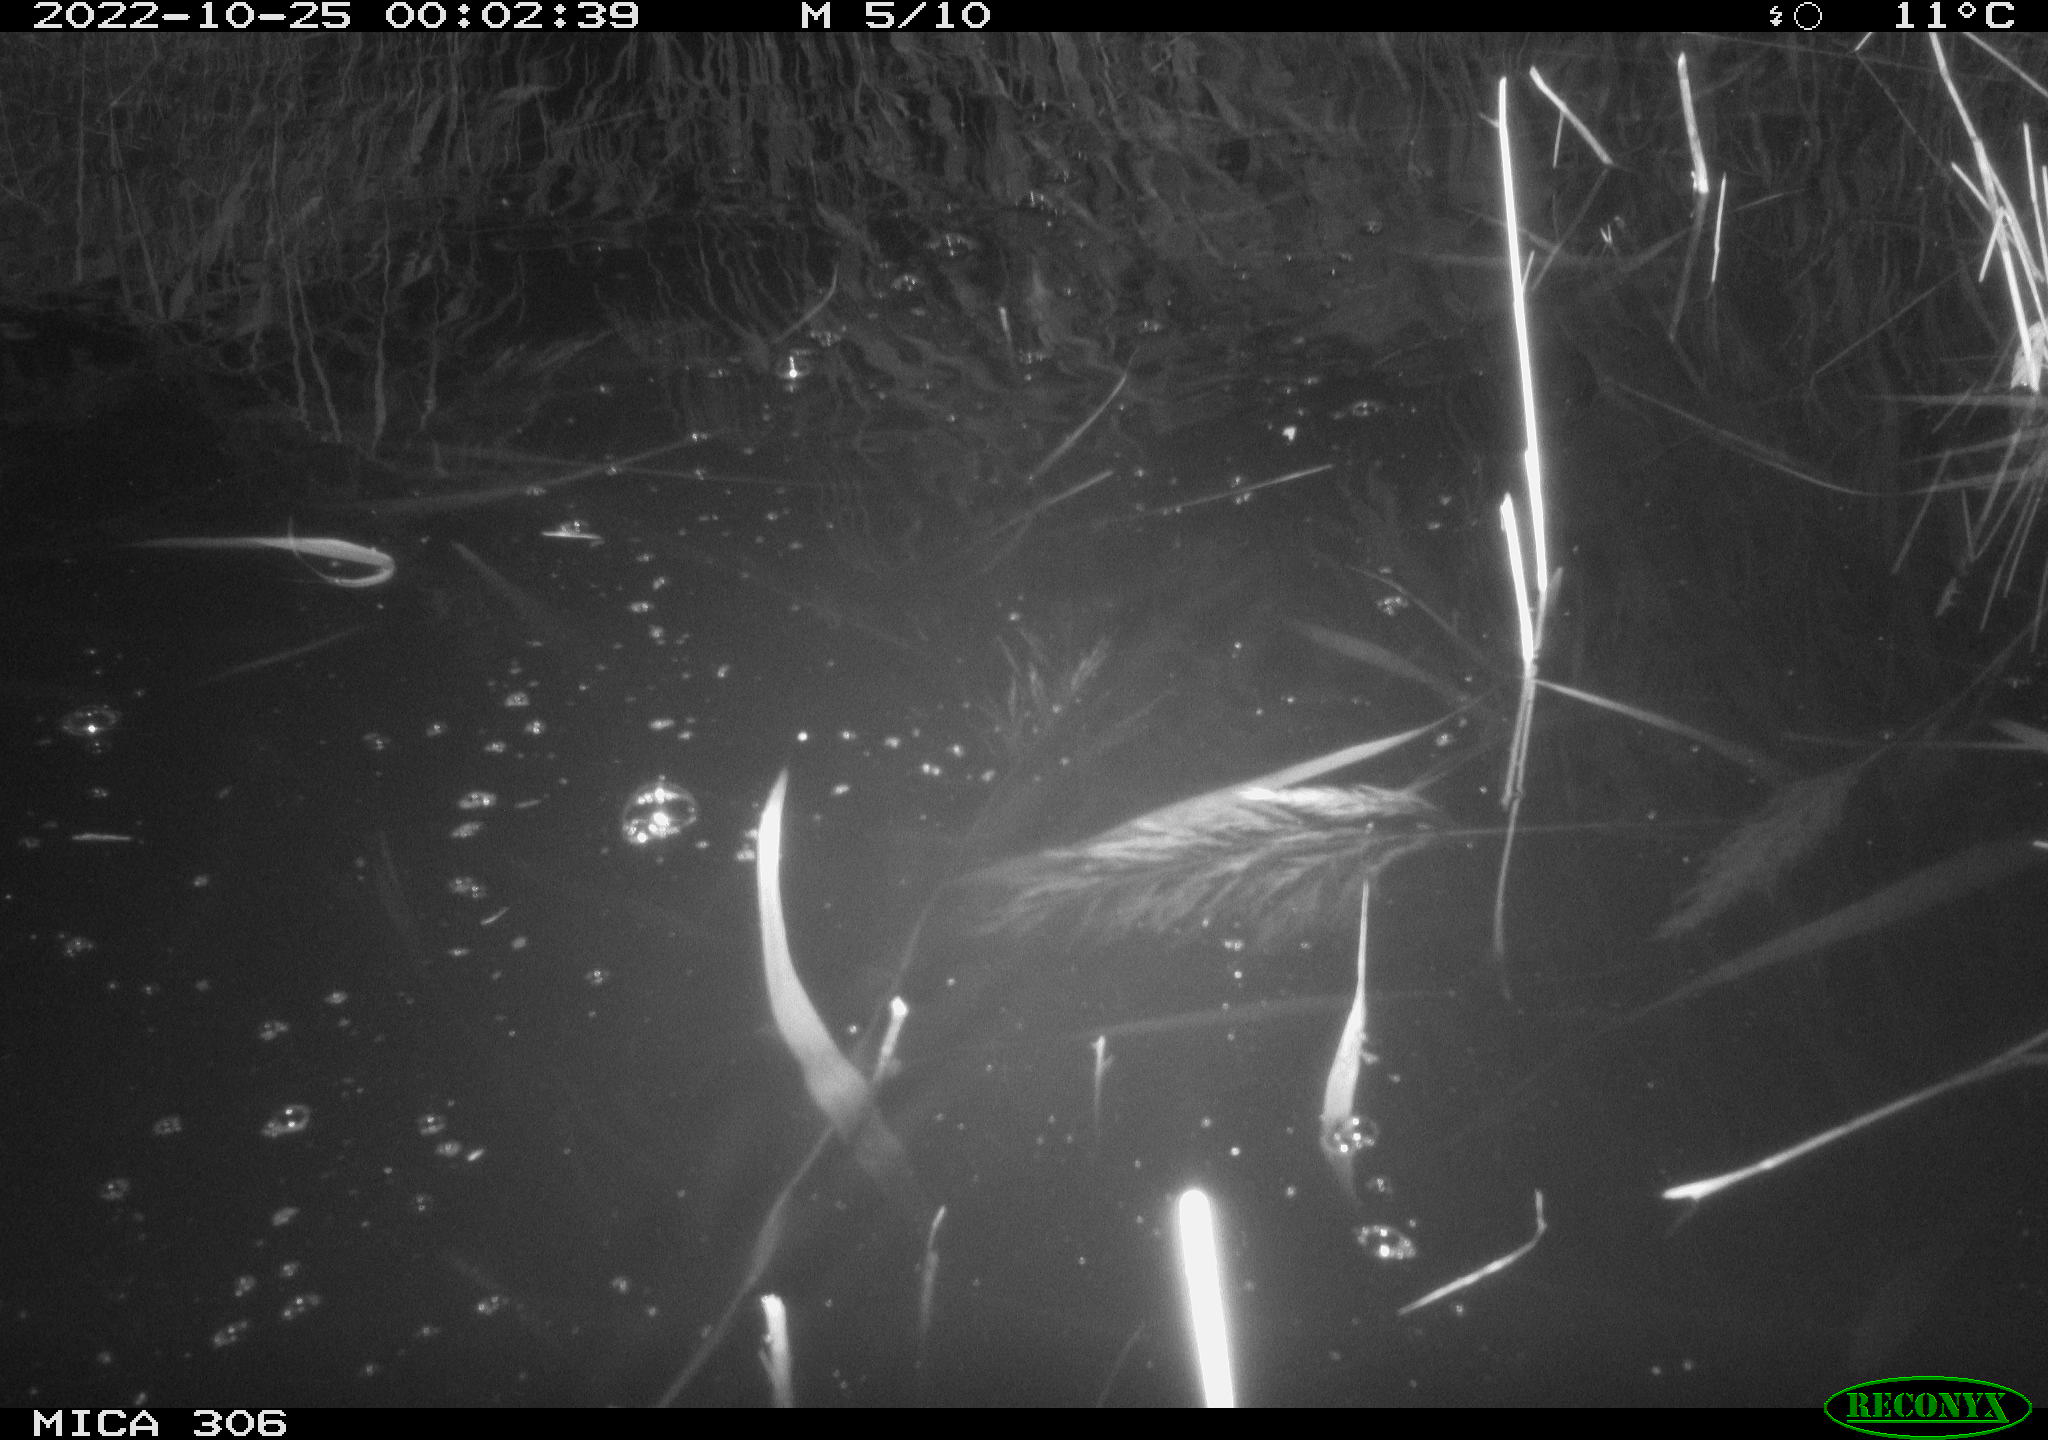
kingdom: Animalia
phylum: Chordata
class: Mammalia
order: Rodentia
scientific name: Rodentia
